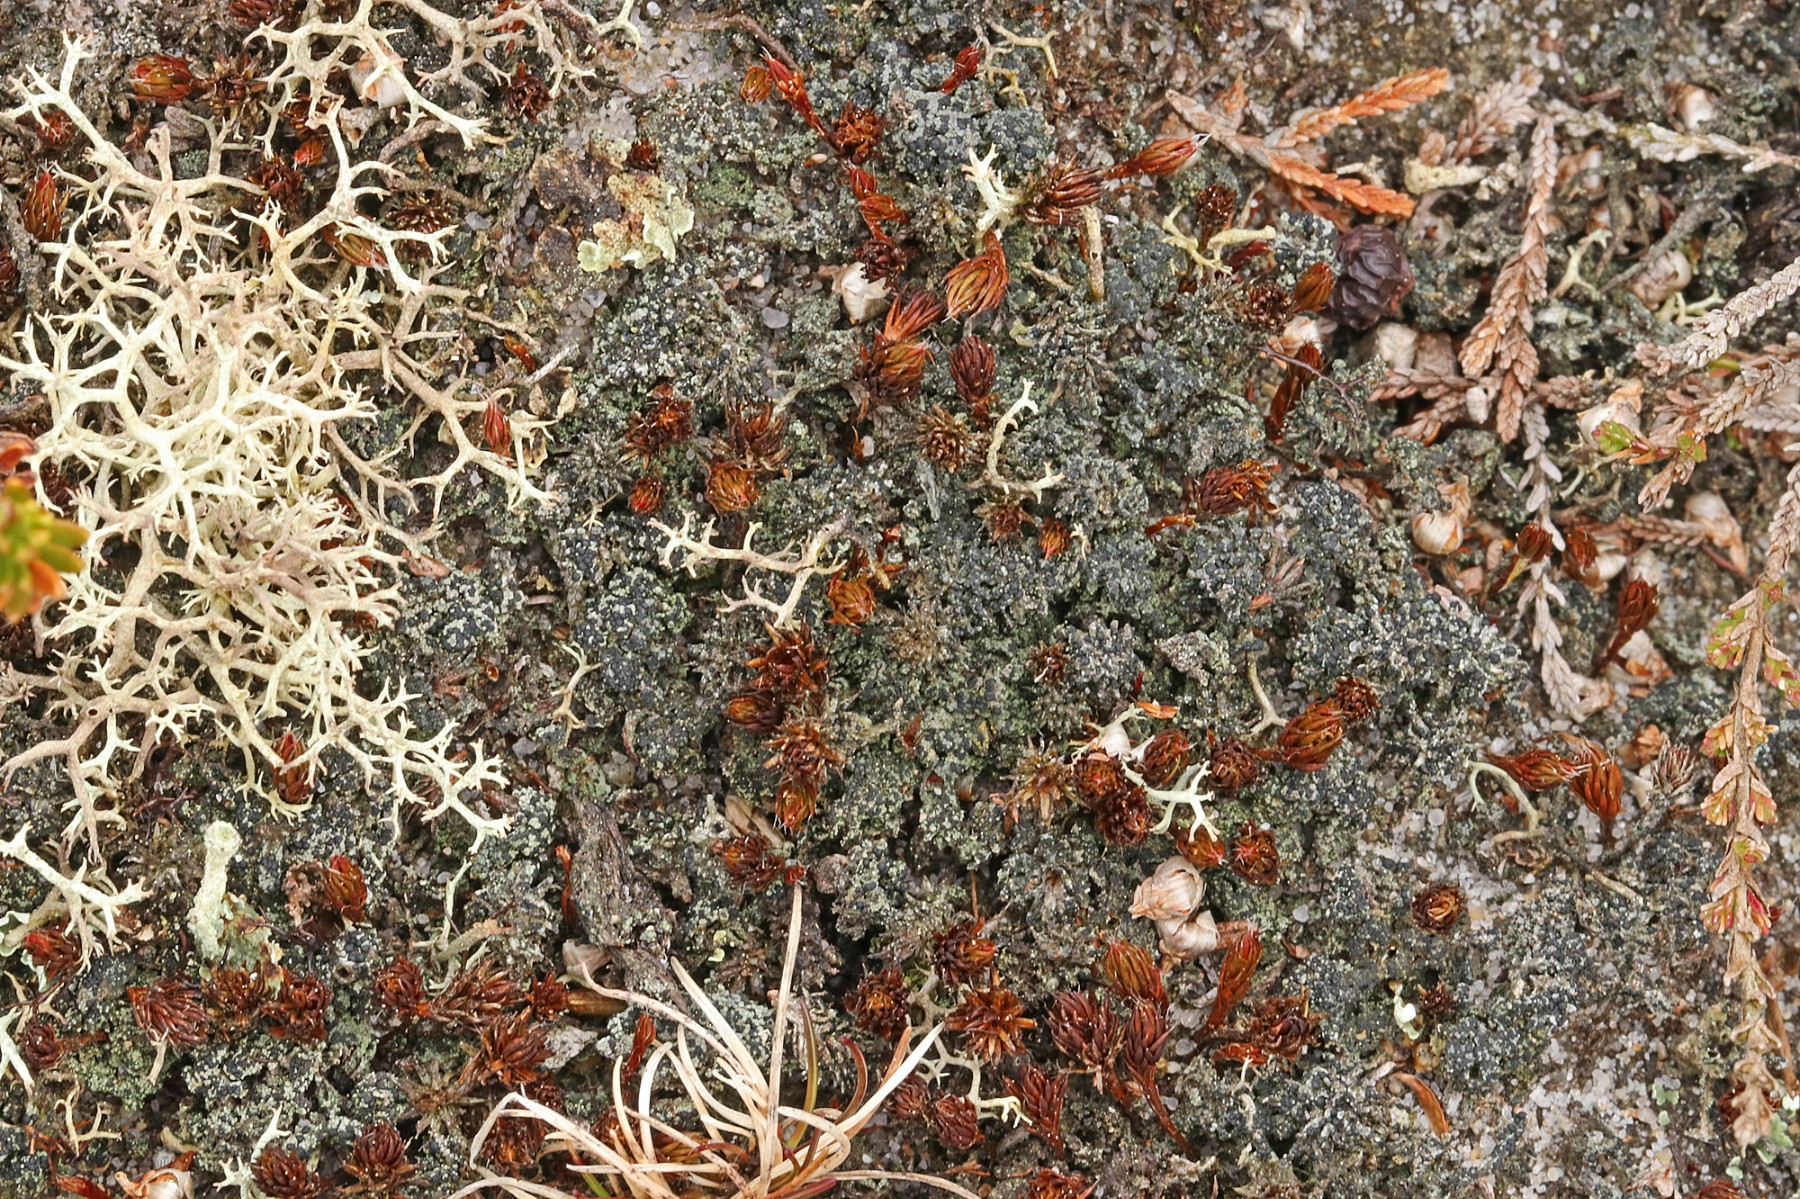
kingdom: Fungi
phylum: Ascomycota
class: Lecanoromycetes
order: Lecanorales
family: Byssolomataceae
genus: Micarea
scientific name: Micarea lignaria
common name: tørve-knaplav
